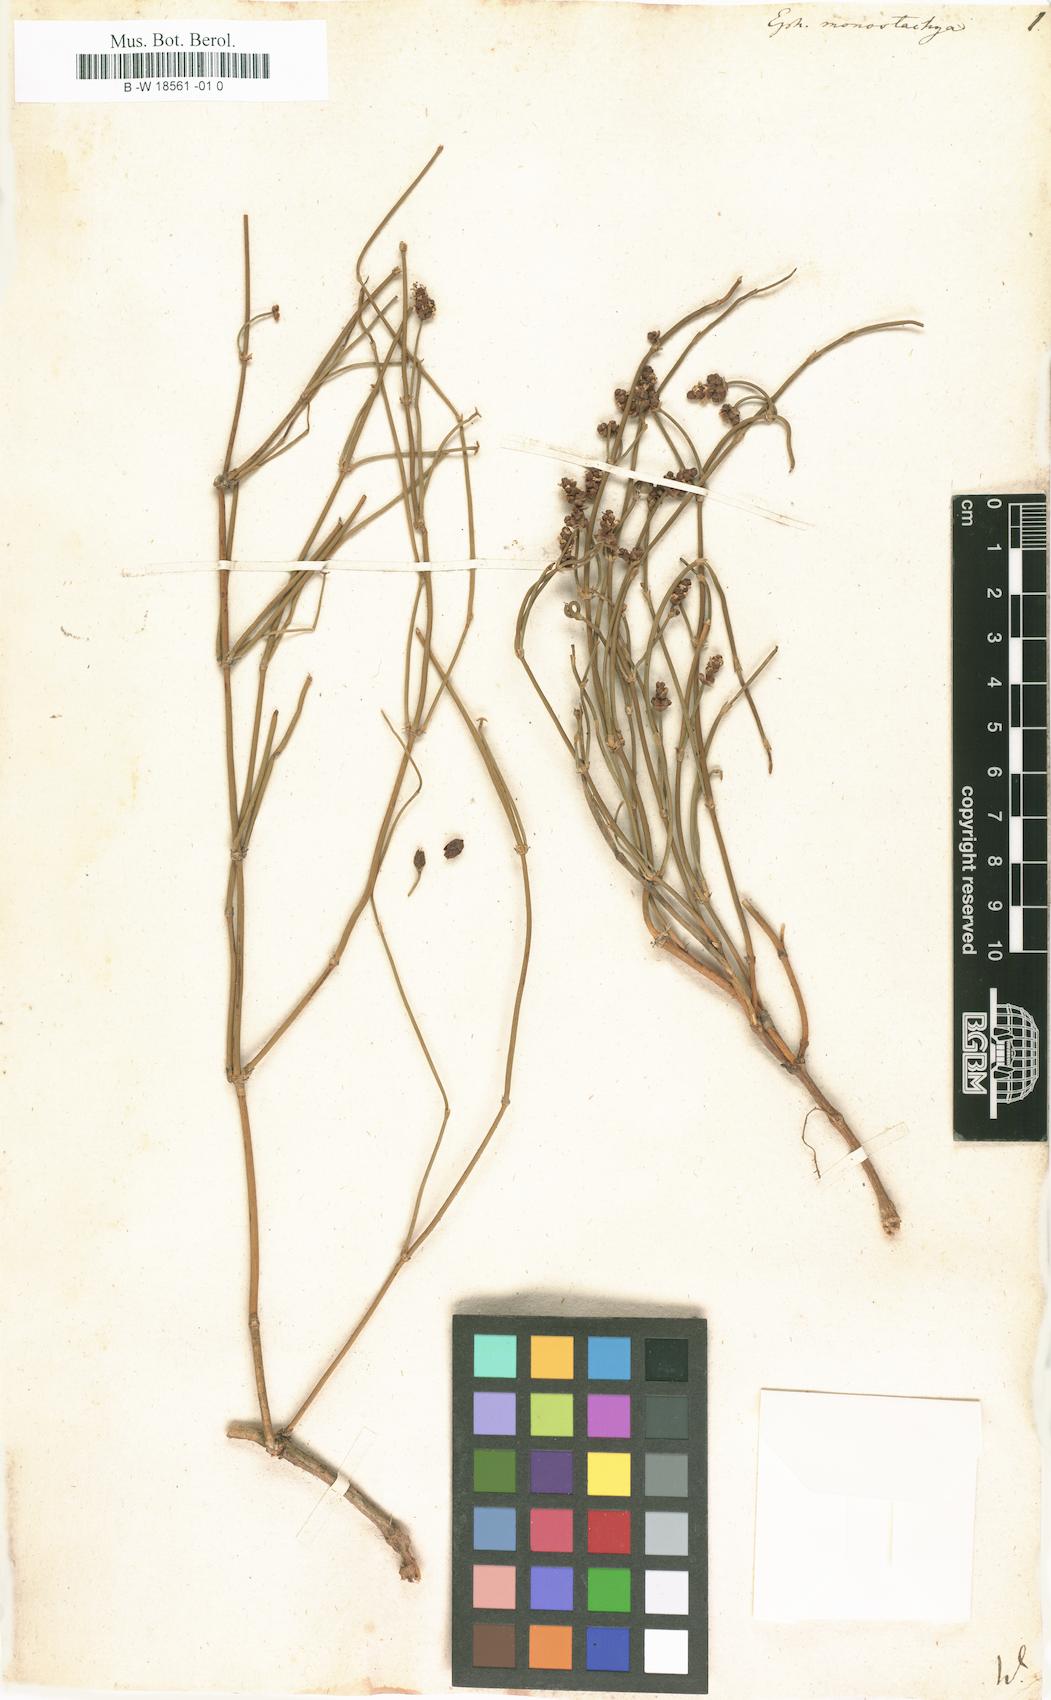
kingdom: Plantae
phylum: Tracheophyta
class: Gnetopsida
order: Ephedrales
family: Ephedraceae
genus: Ephedra
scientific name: Ephedra monosperma
